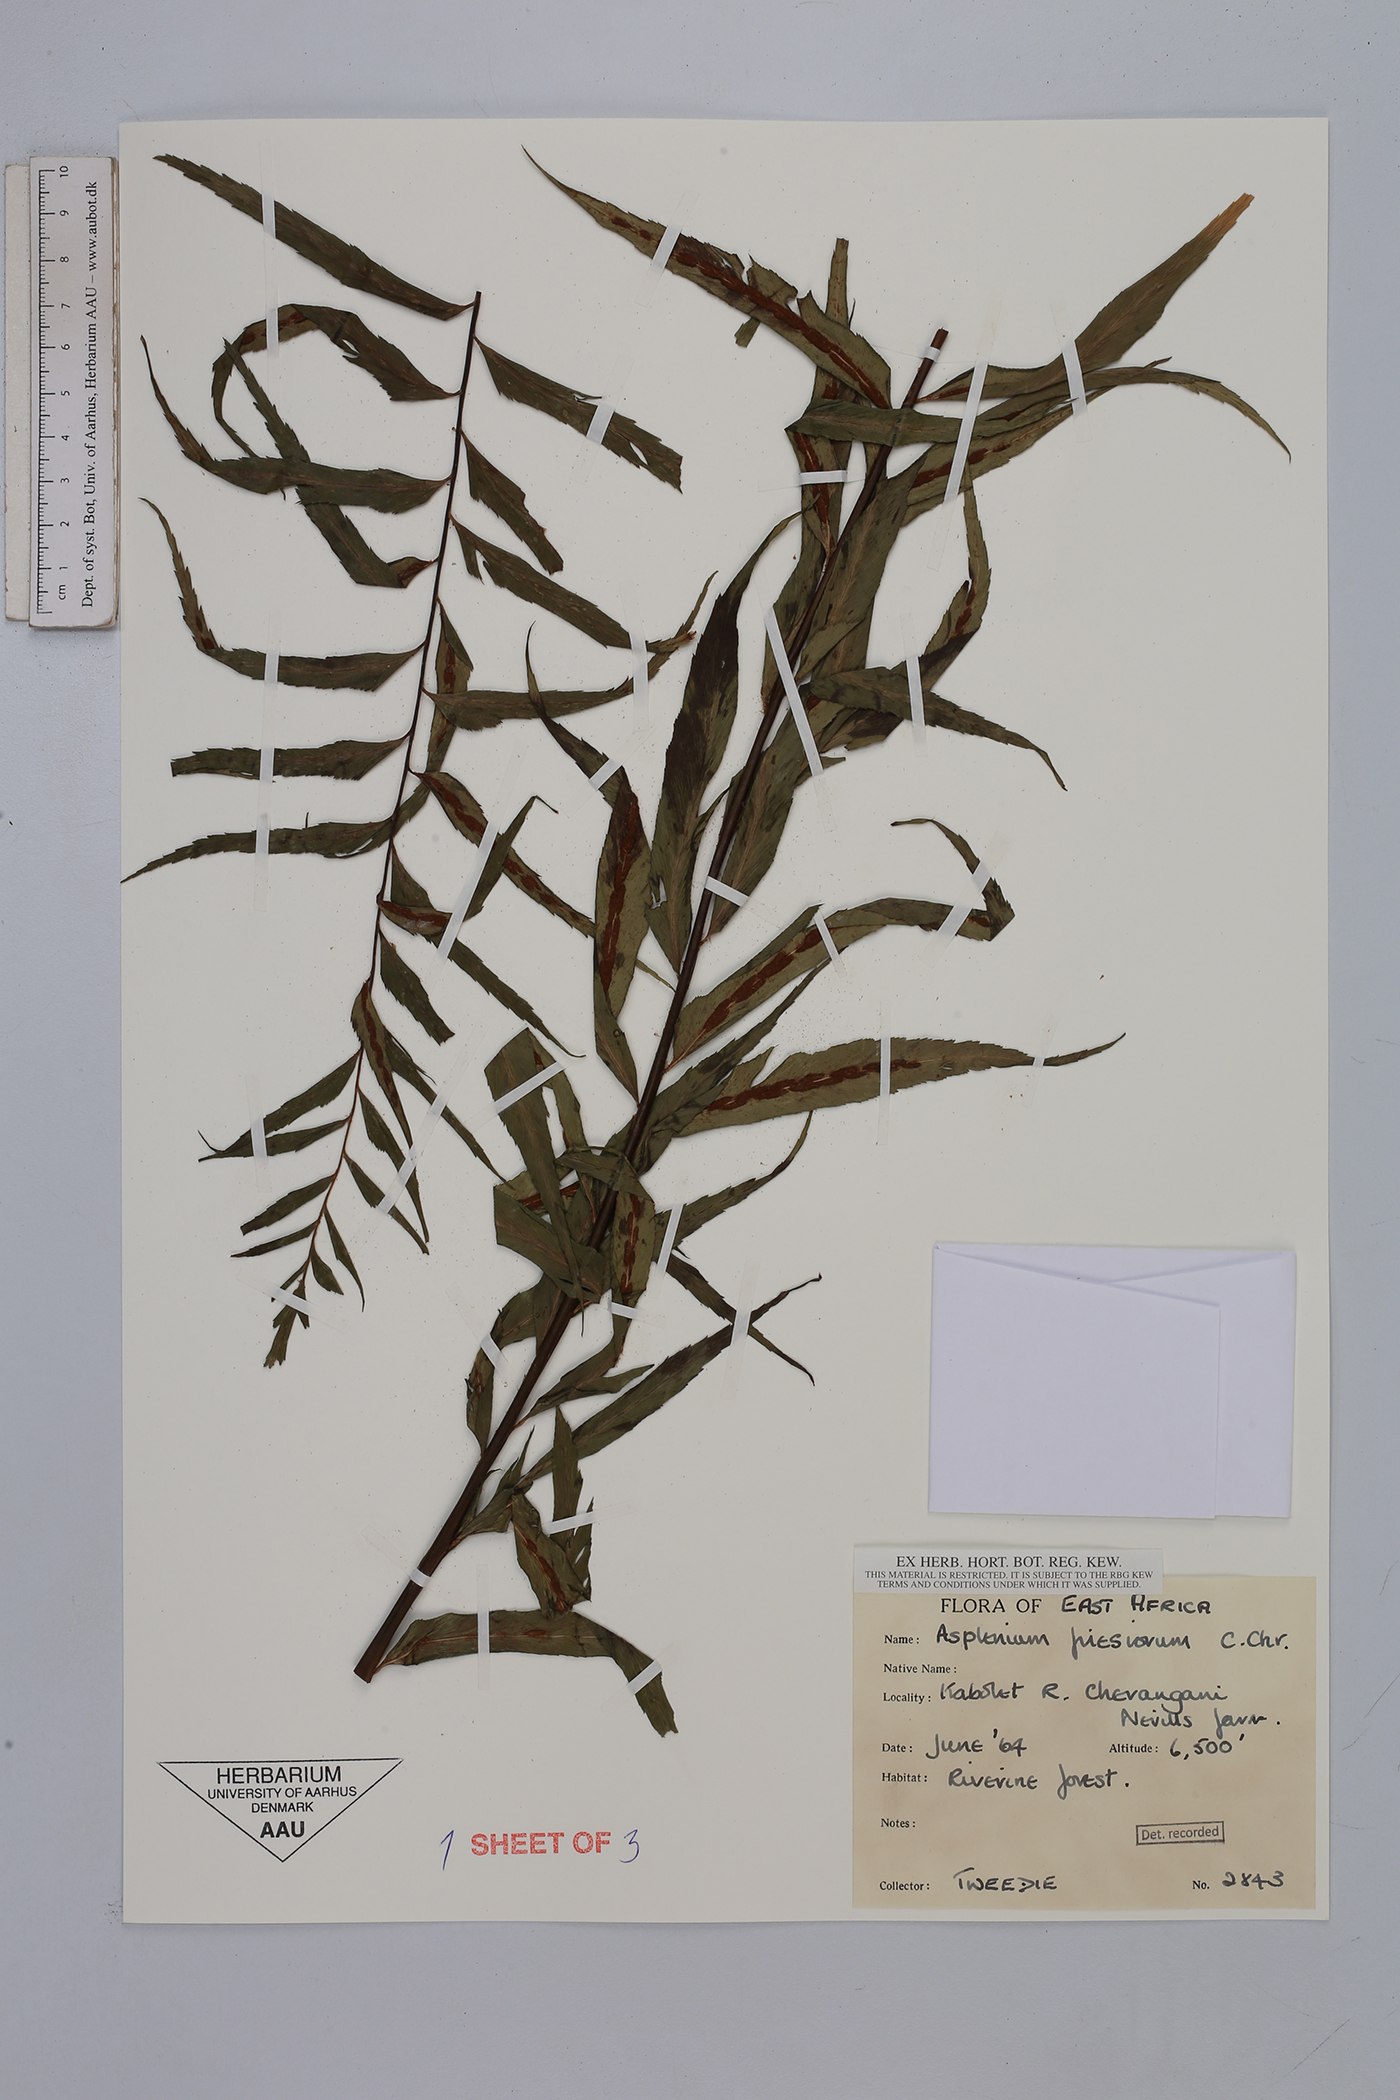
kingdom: Plantae
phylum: Tracheophyta
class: Polypodiopsida
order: Polypodiales
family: Aspleniaceae
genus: Asplenium
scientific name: Asplenium gueinzianum
